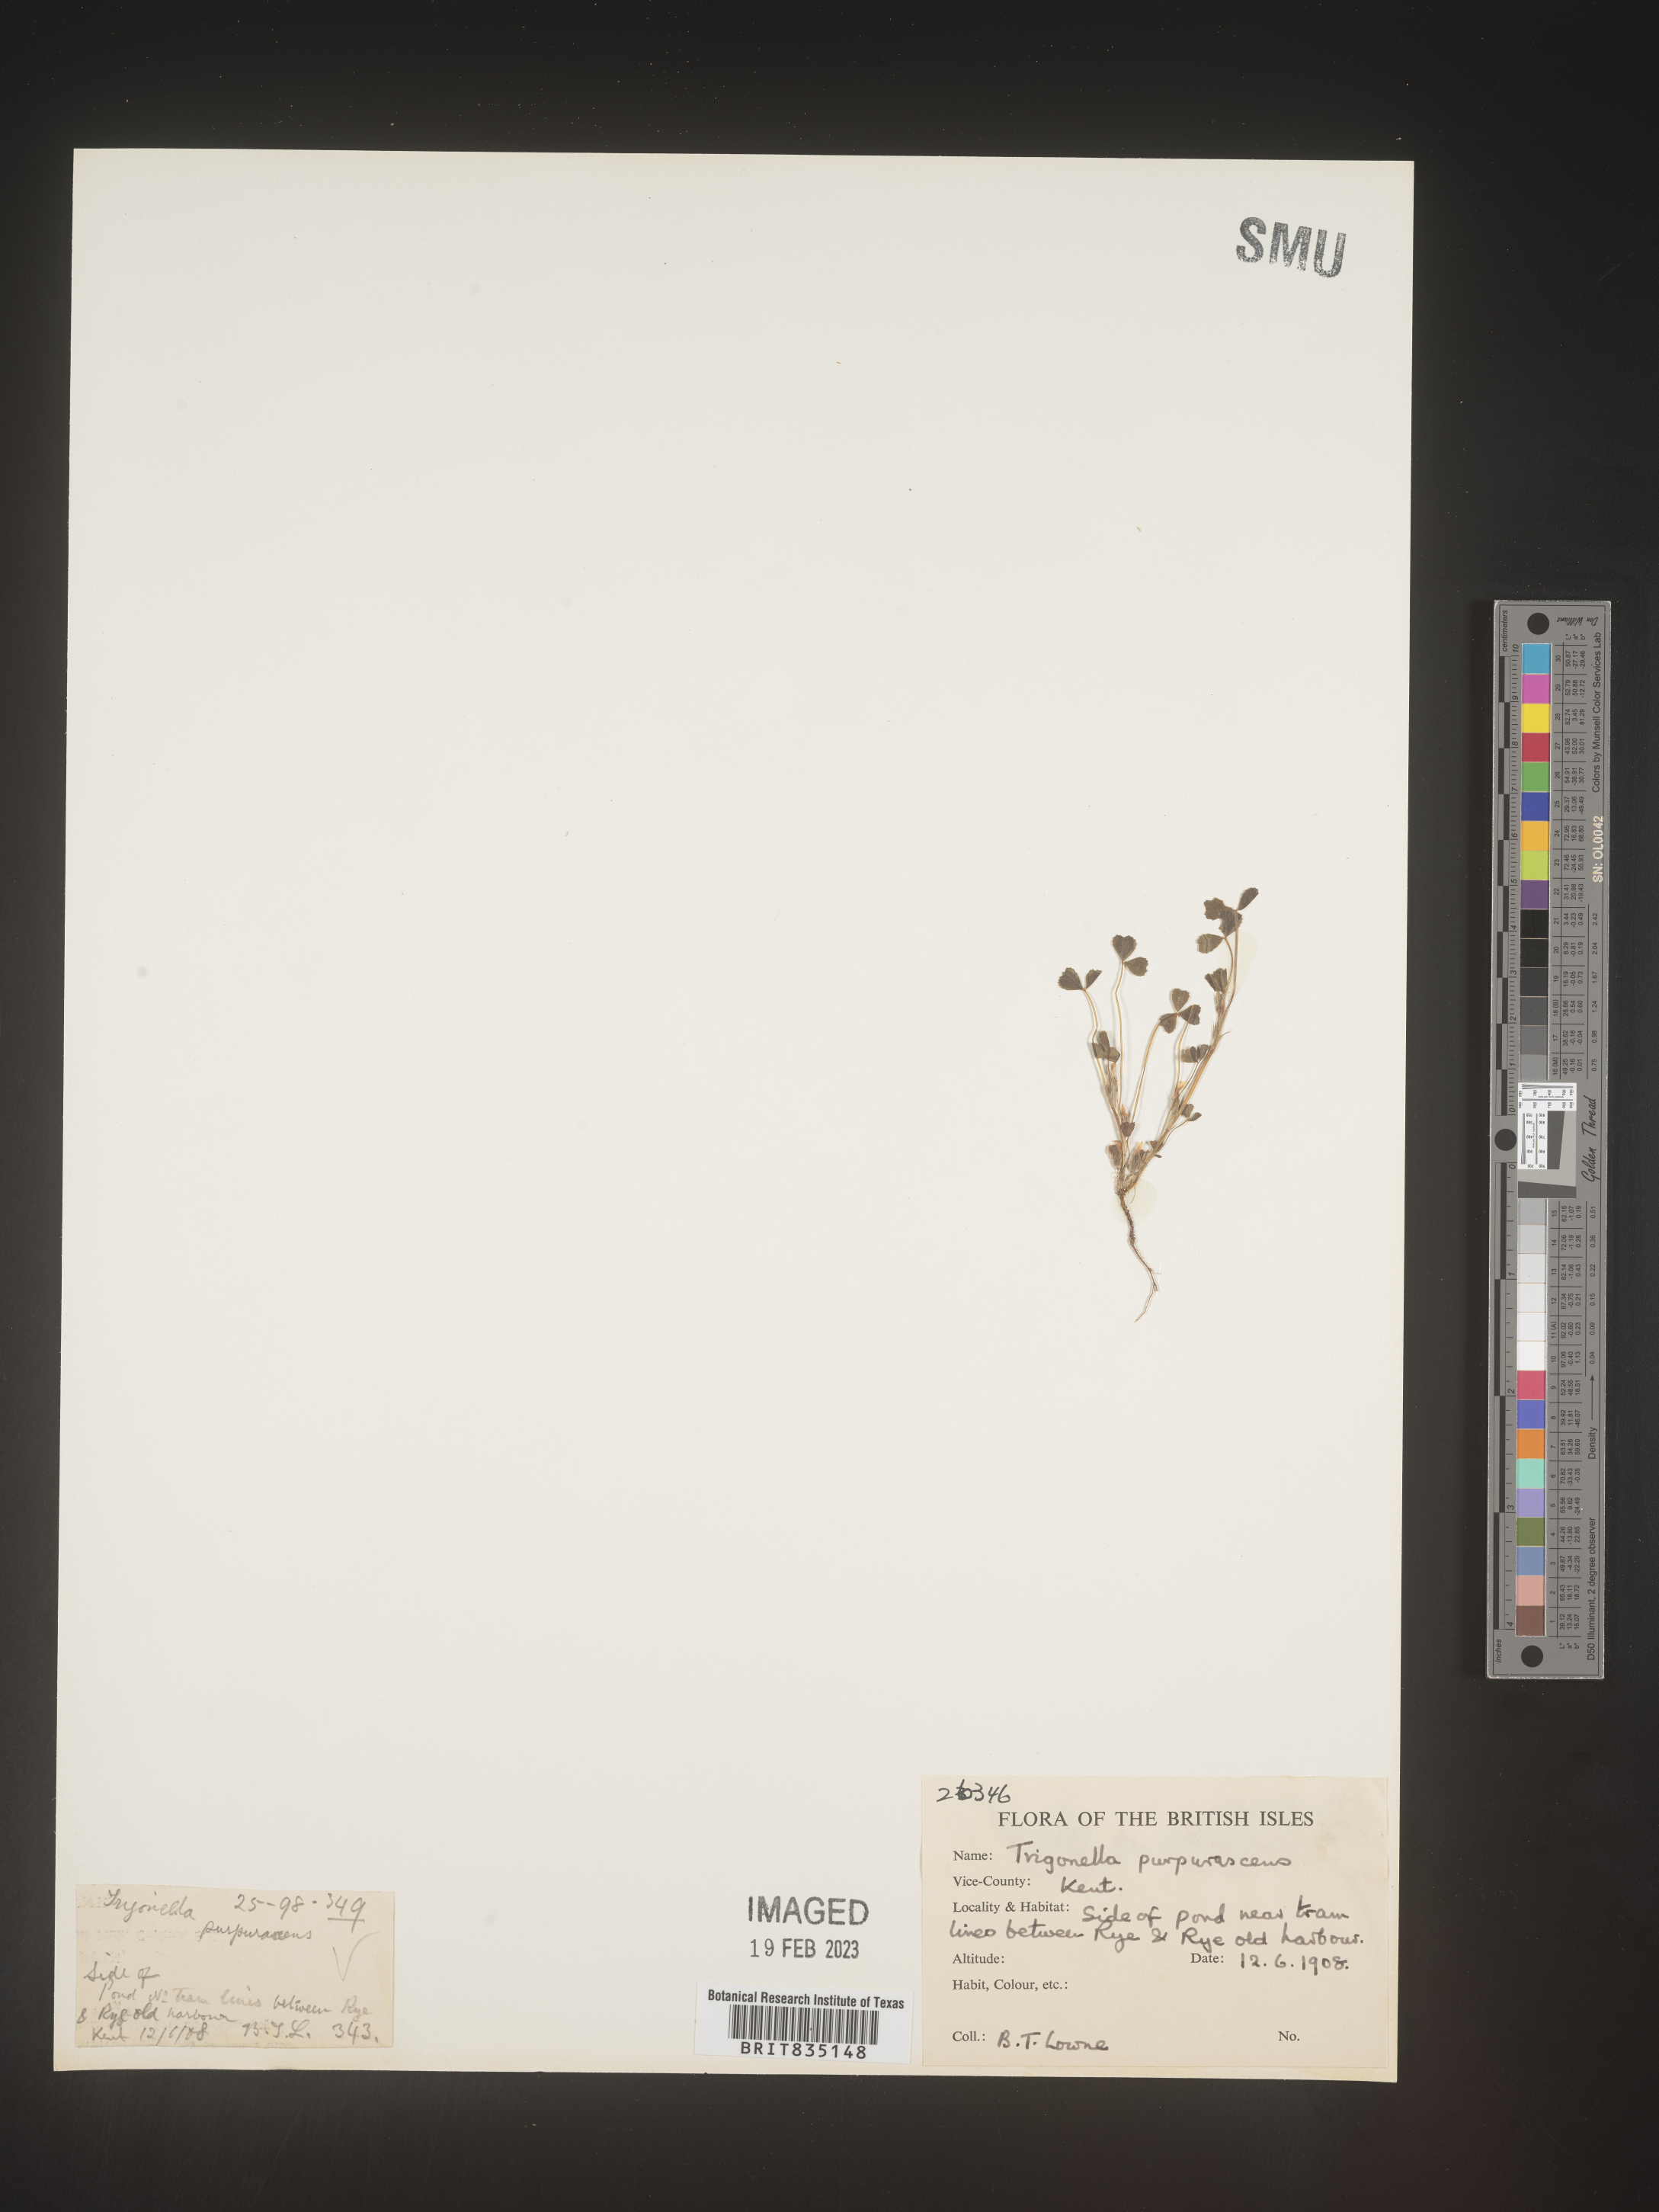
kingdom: Plantae
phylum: Tracheophyta
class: Magnoliopsida
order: Fabales
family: Fabaceae
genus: Trigonella
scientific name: Trigonella
